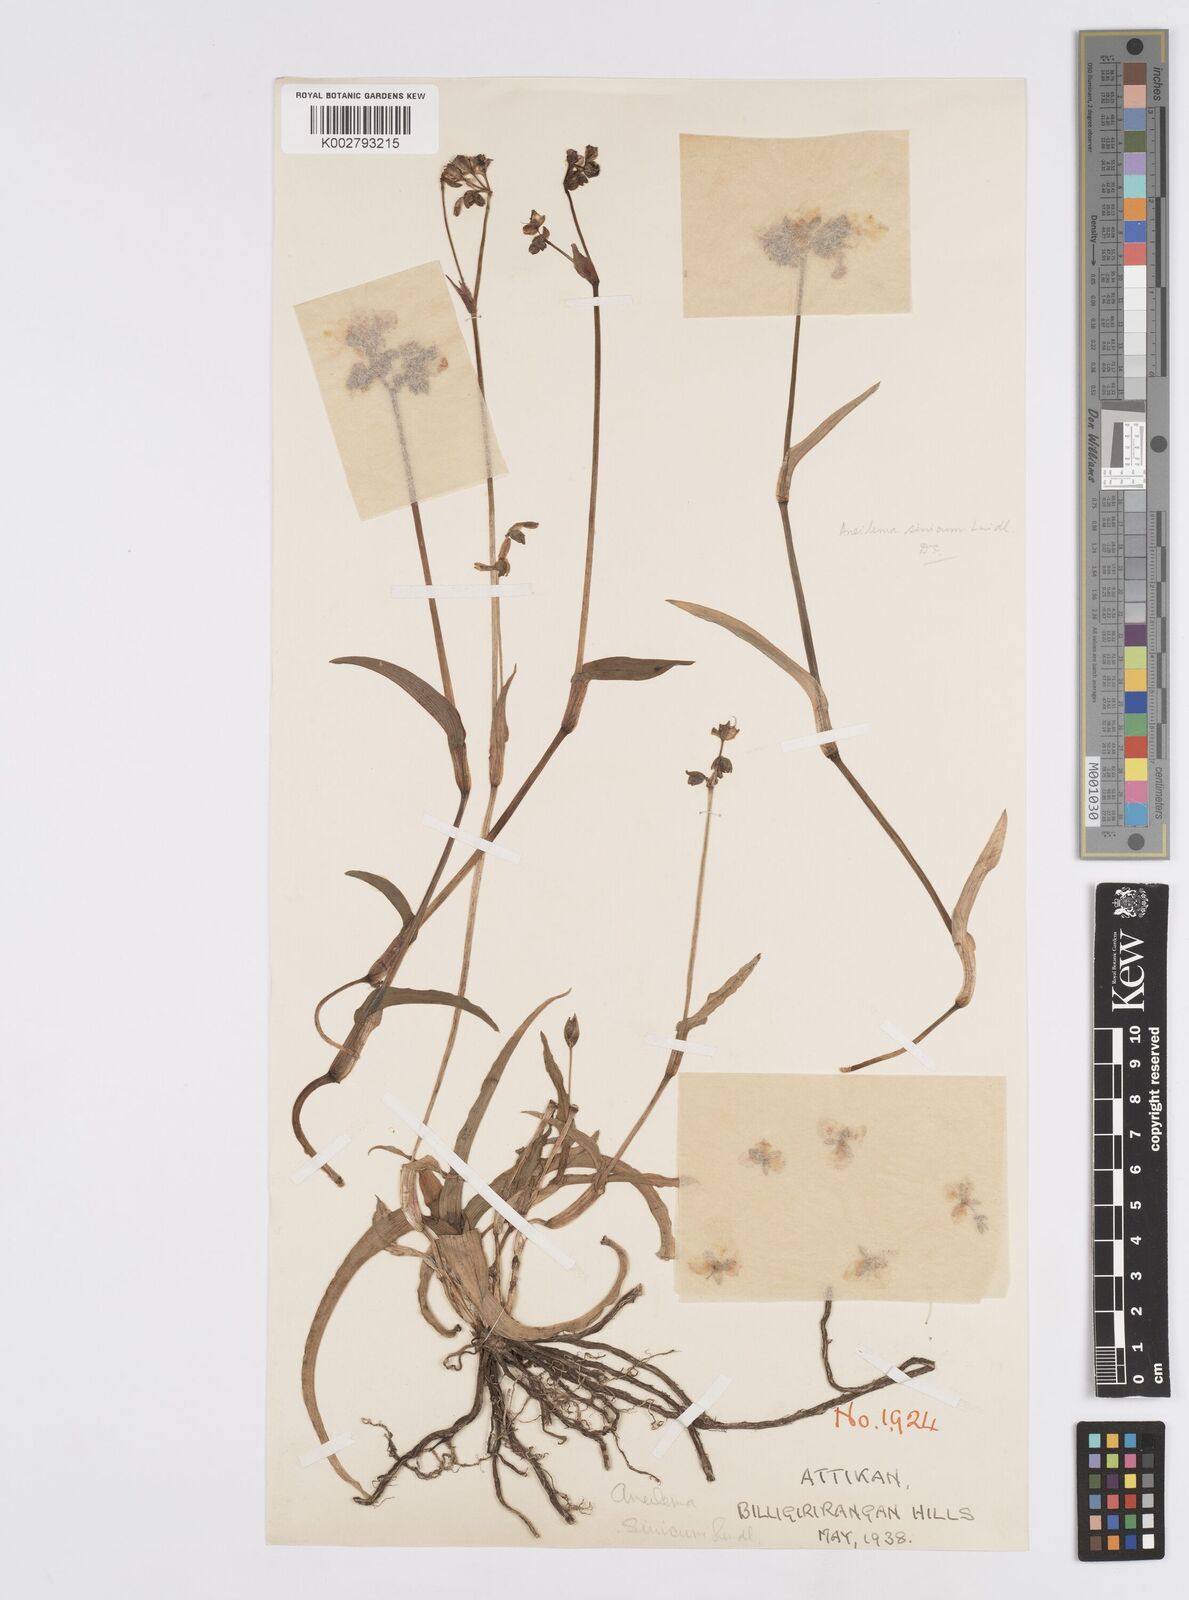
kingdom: Plantae
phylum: Tracheophyta
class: Liliopsida
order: Commelinales
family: Commelinaceae
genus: Murdannia
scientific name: Murdannia simplex
